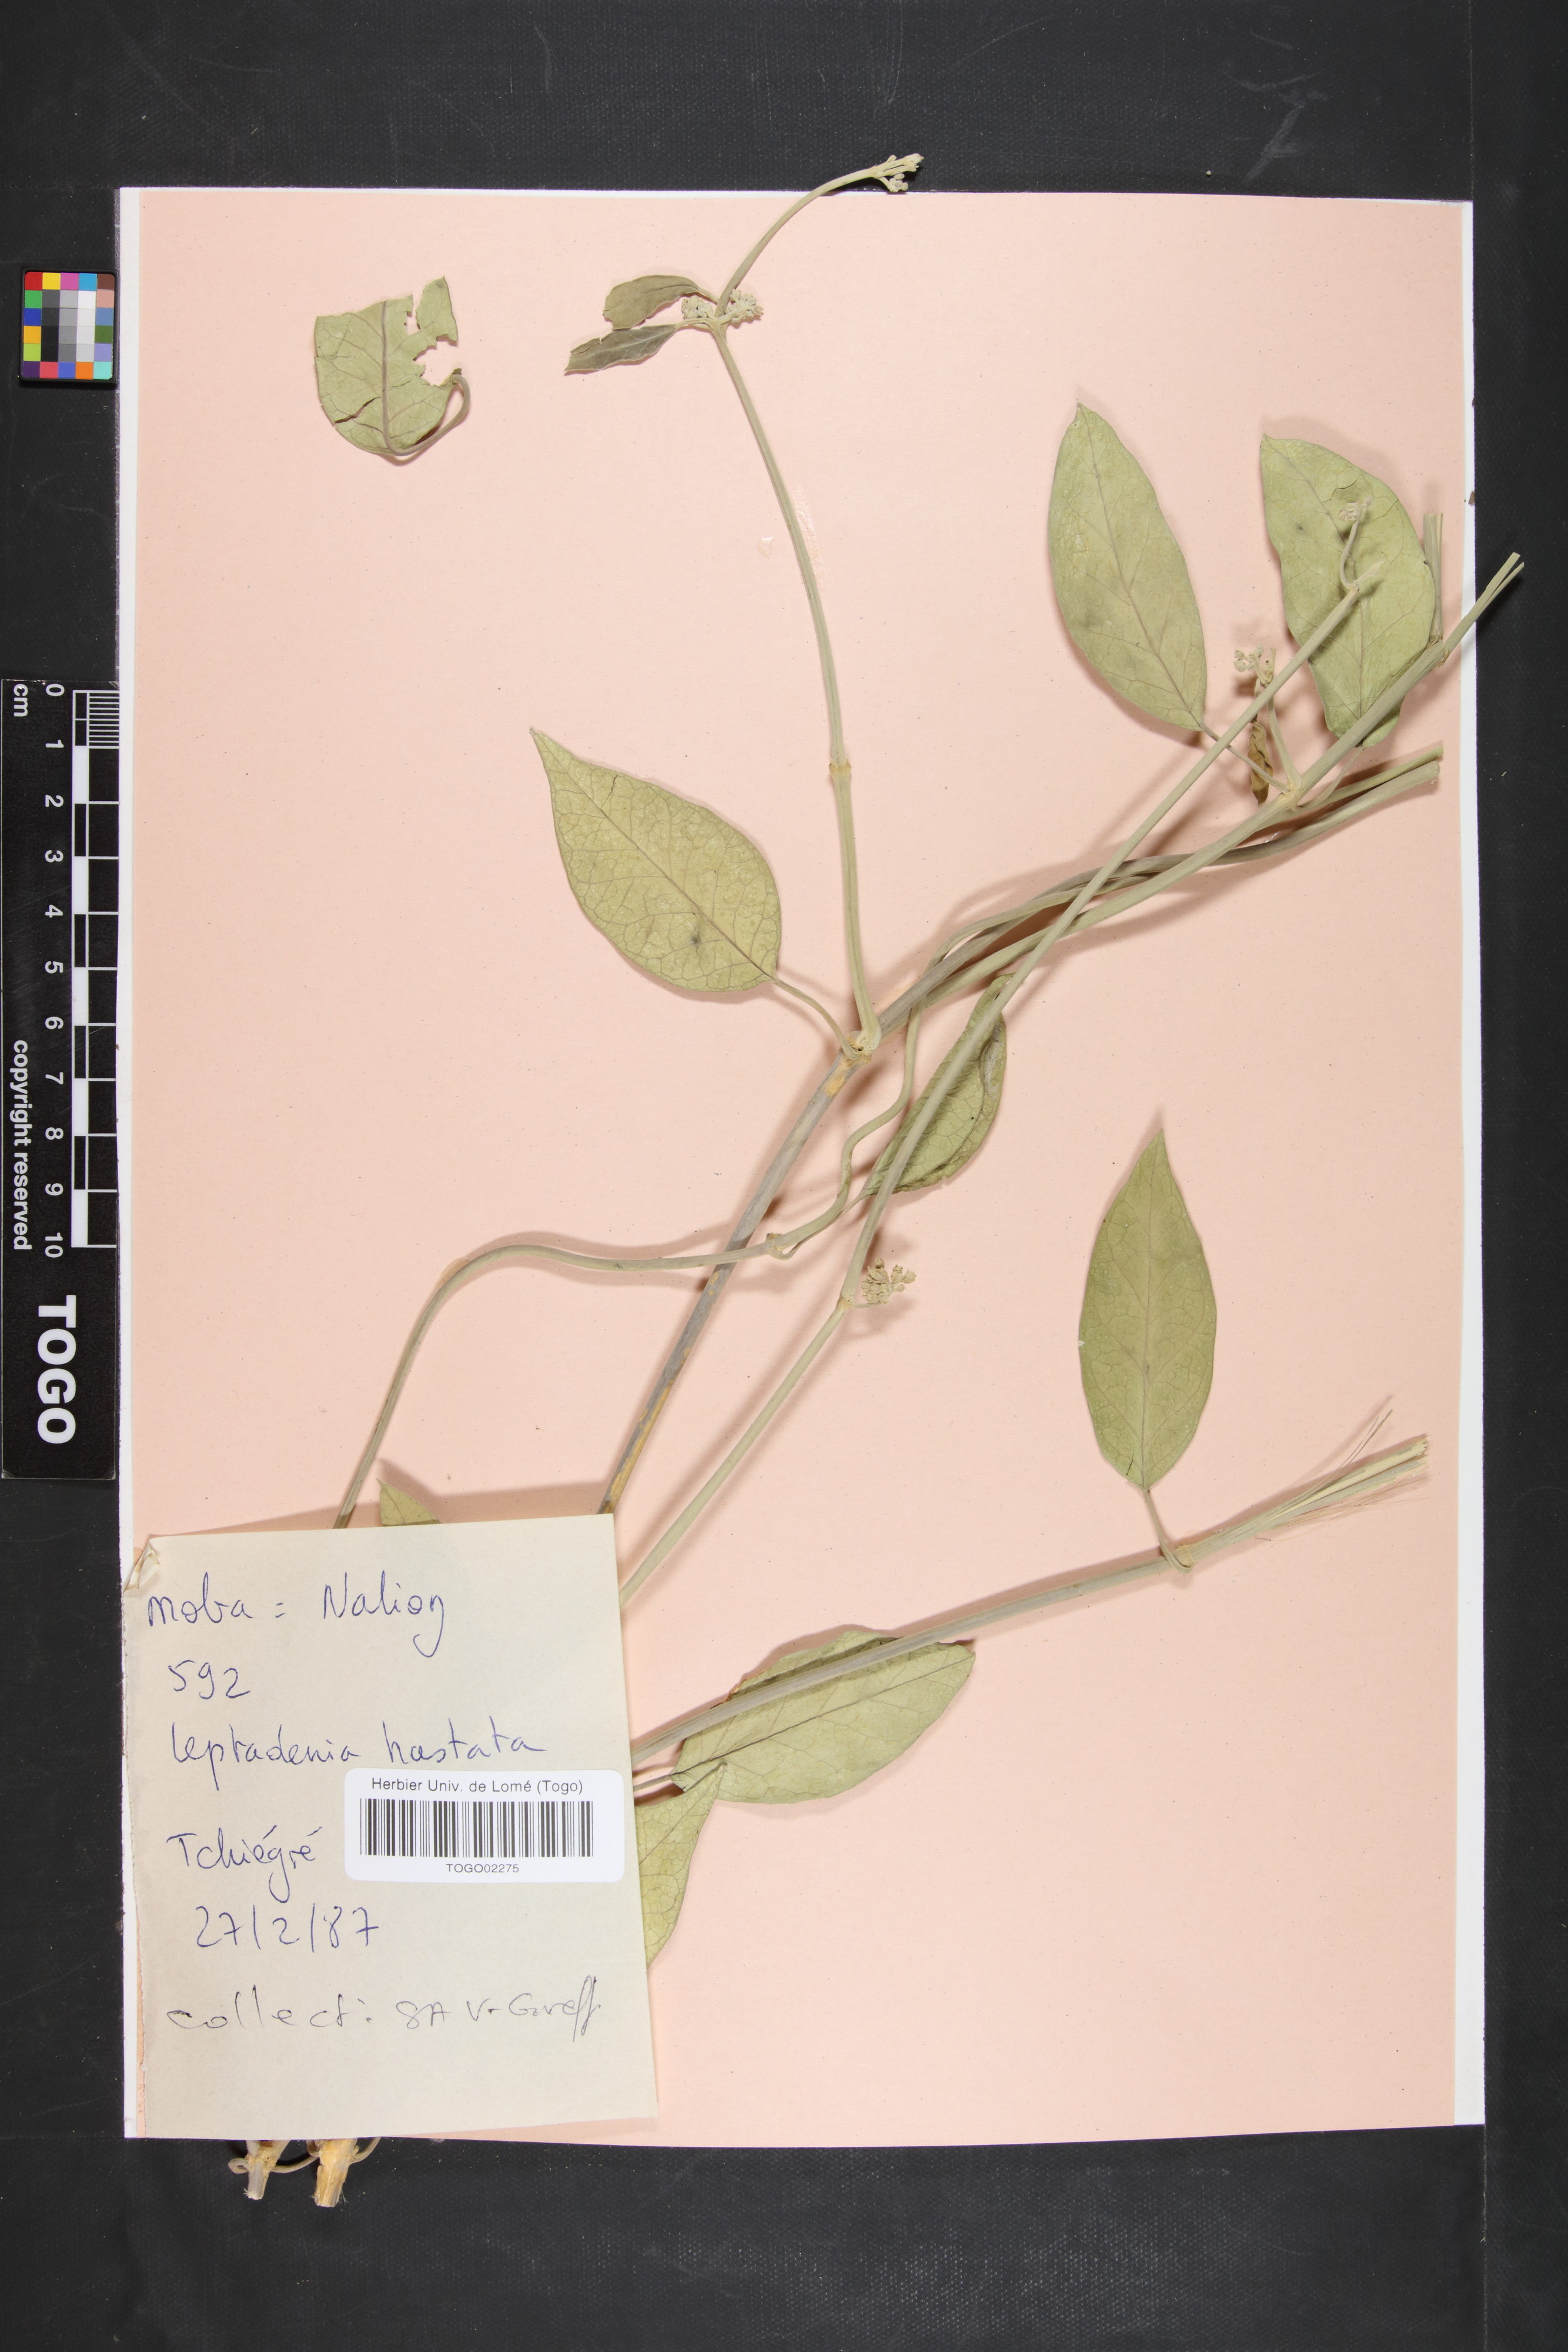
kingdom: Plantae
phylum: Tracheophyta
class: Magnoliopsida
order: Gentianales
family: Apocynaceae
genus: Leptadenia
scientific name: Leptadenia lanceolata
